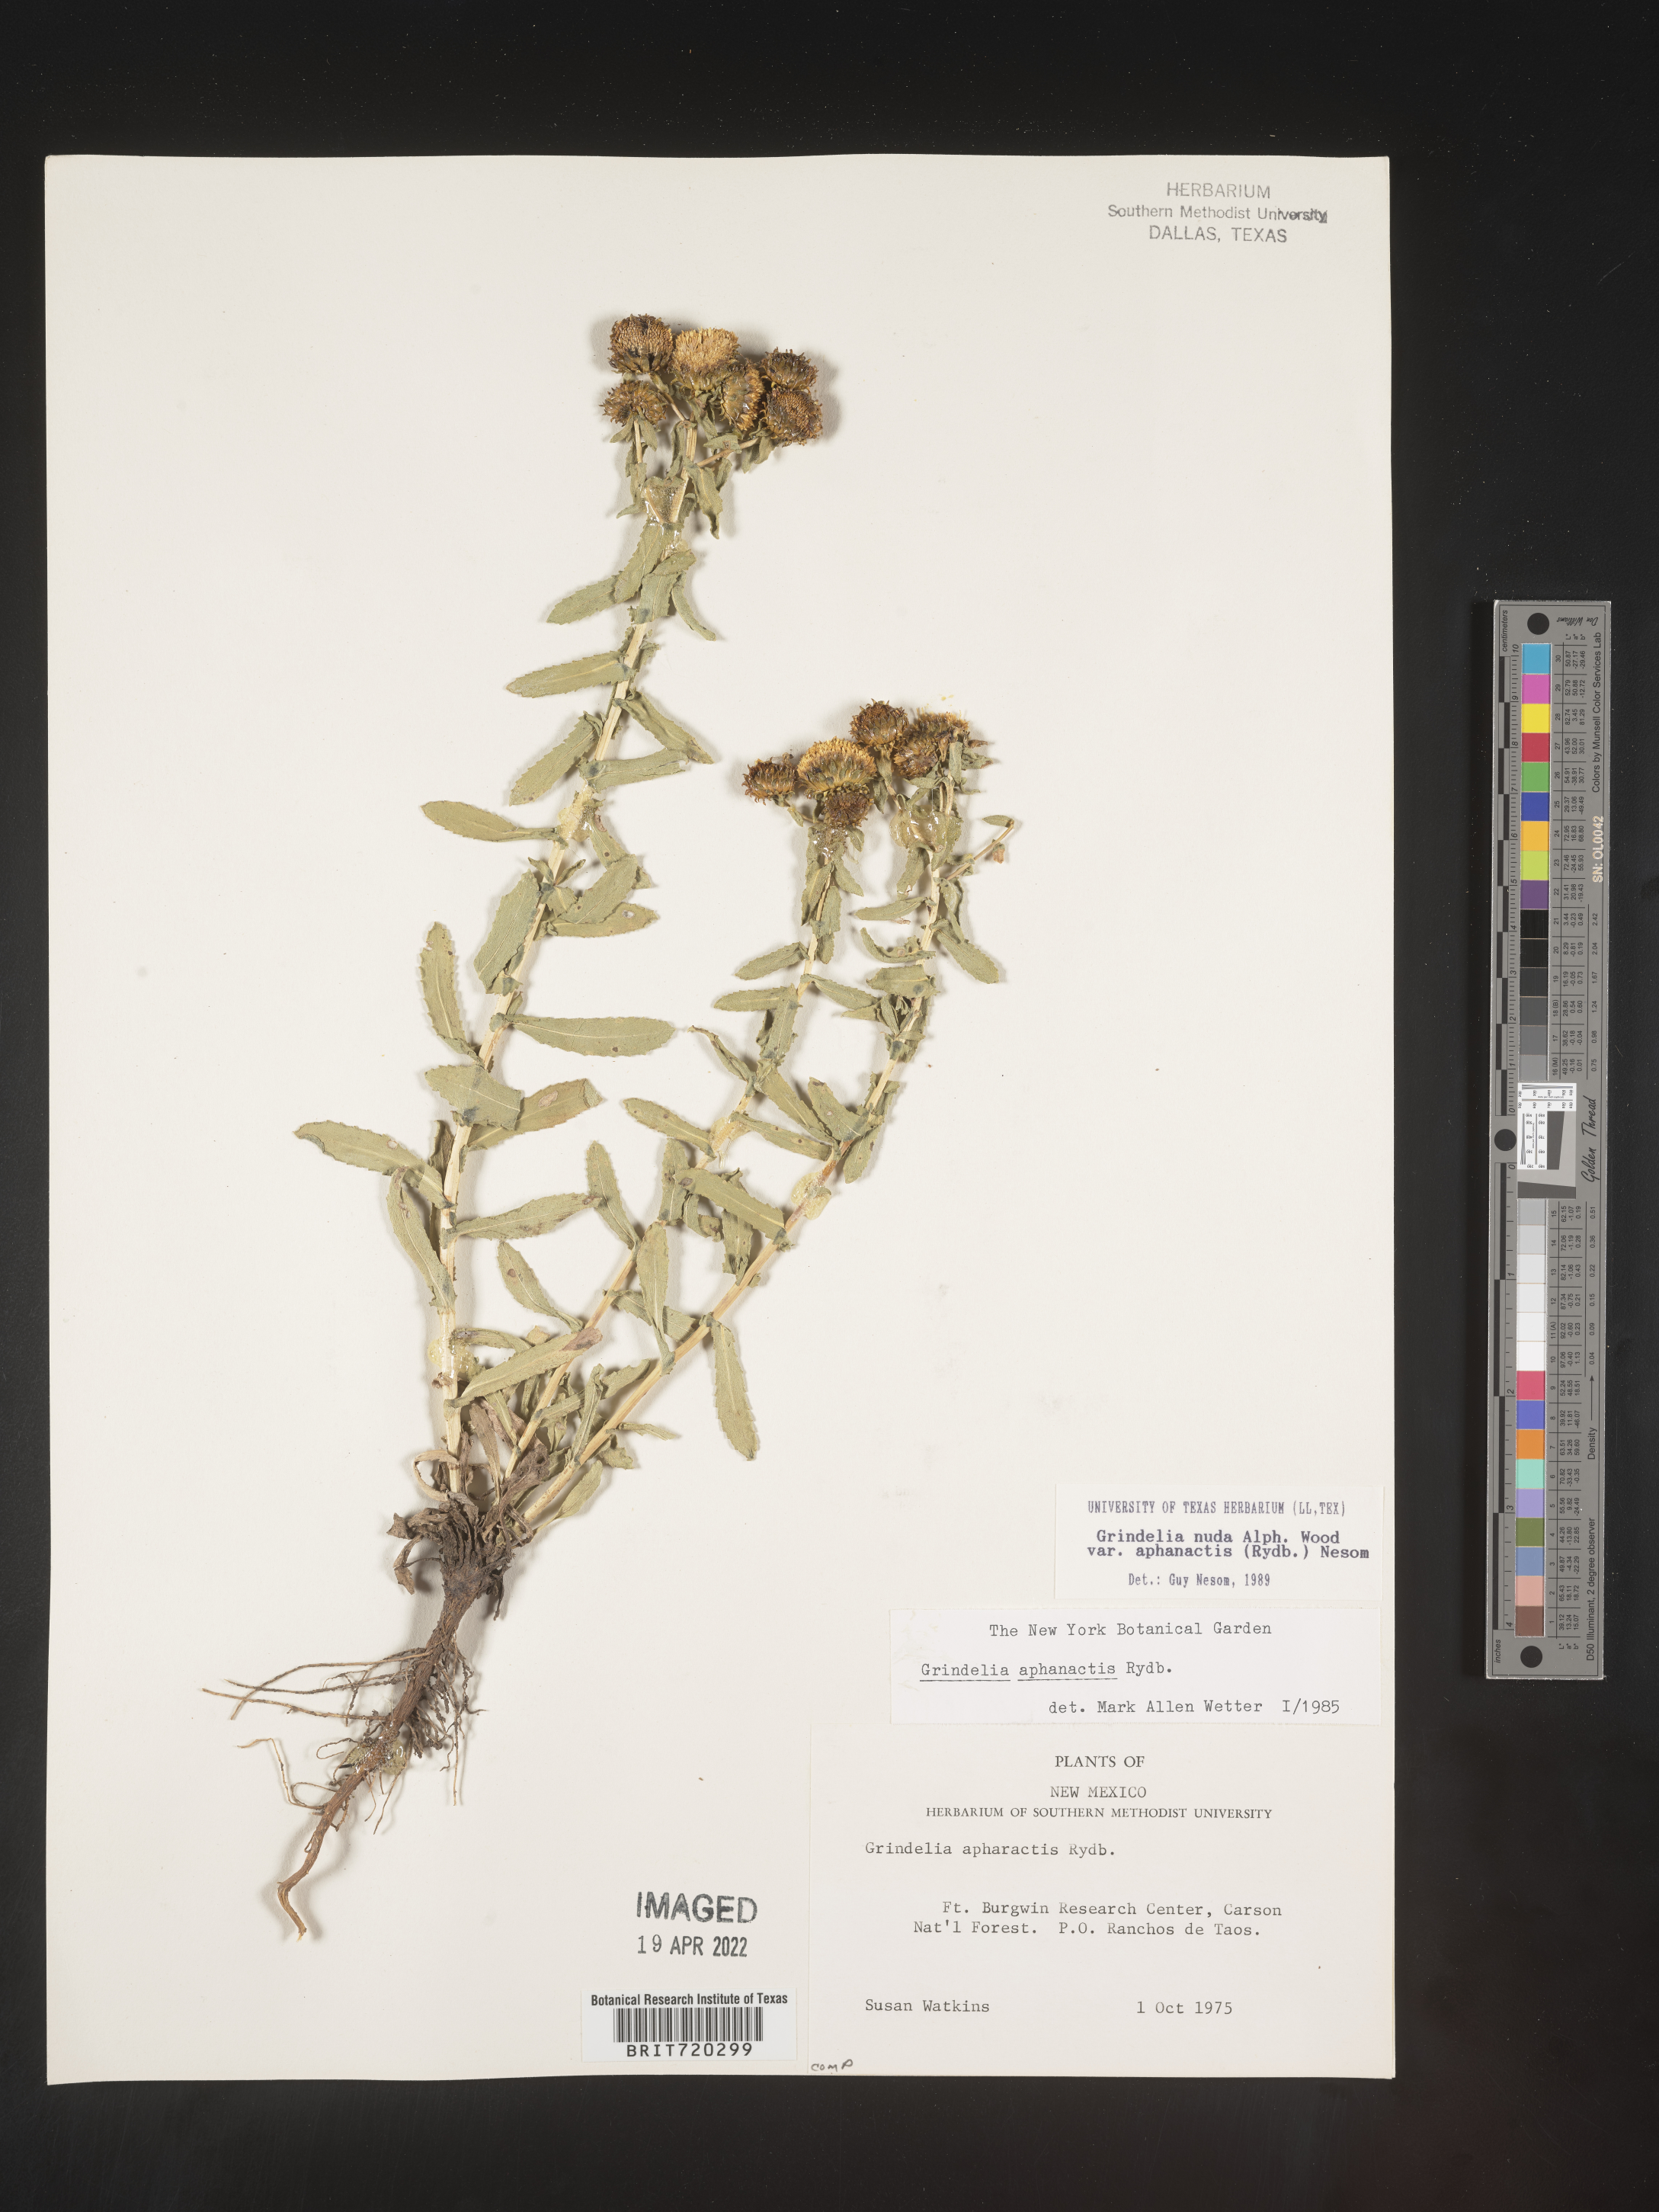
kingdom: Plantae
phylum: Tracheophyta
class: Magnoliopsida
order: Asterales
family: Asteraceae
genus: Grindelia
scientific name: Grindelia nuda
